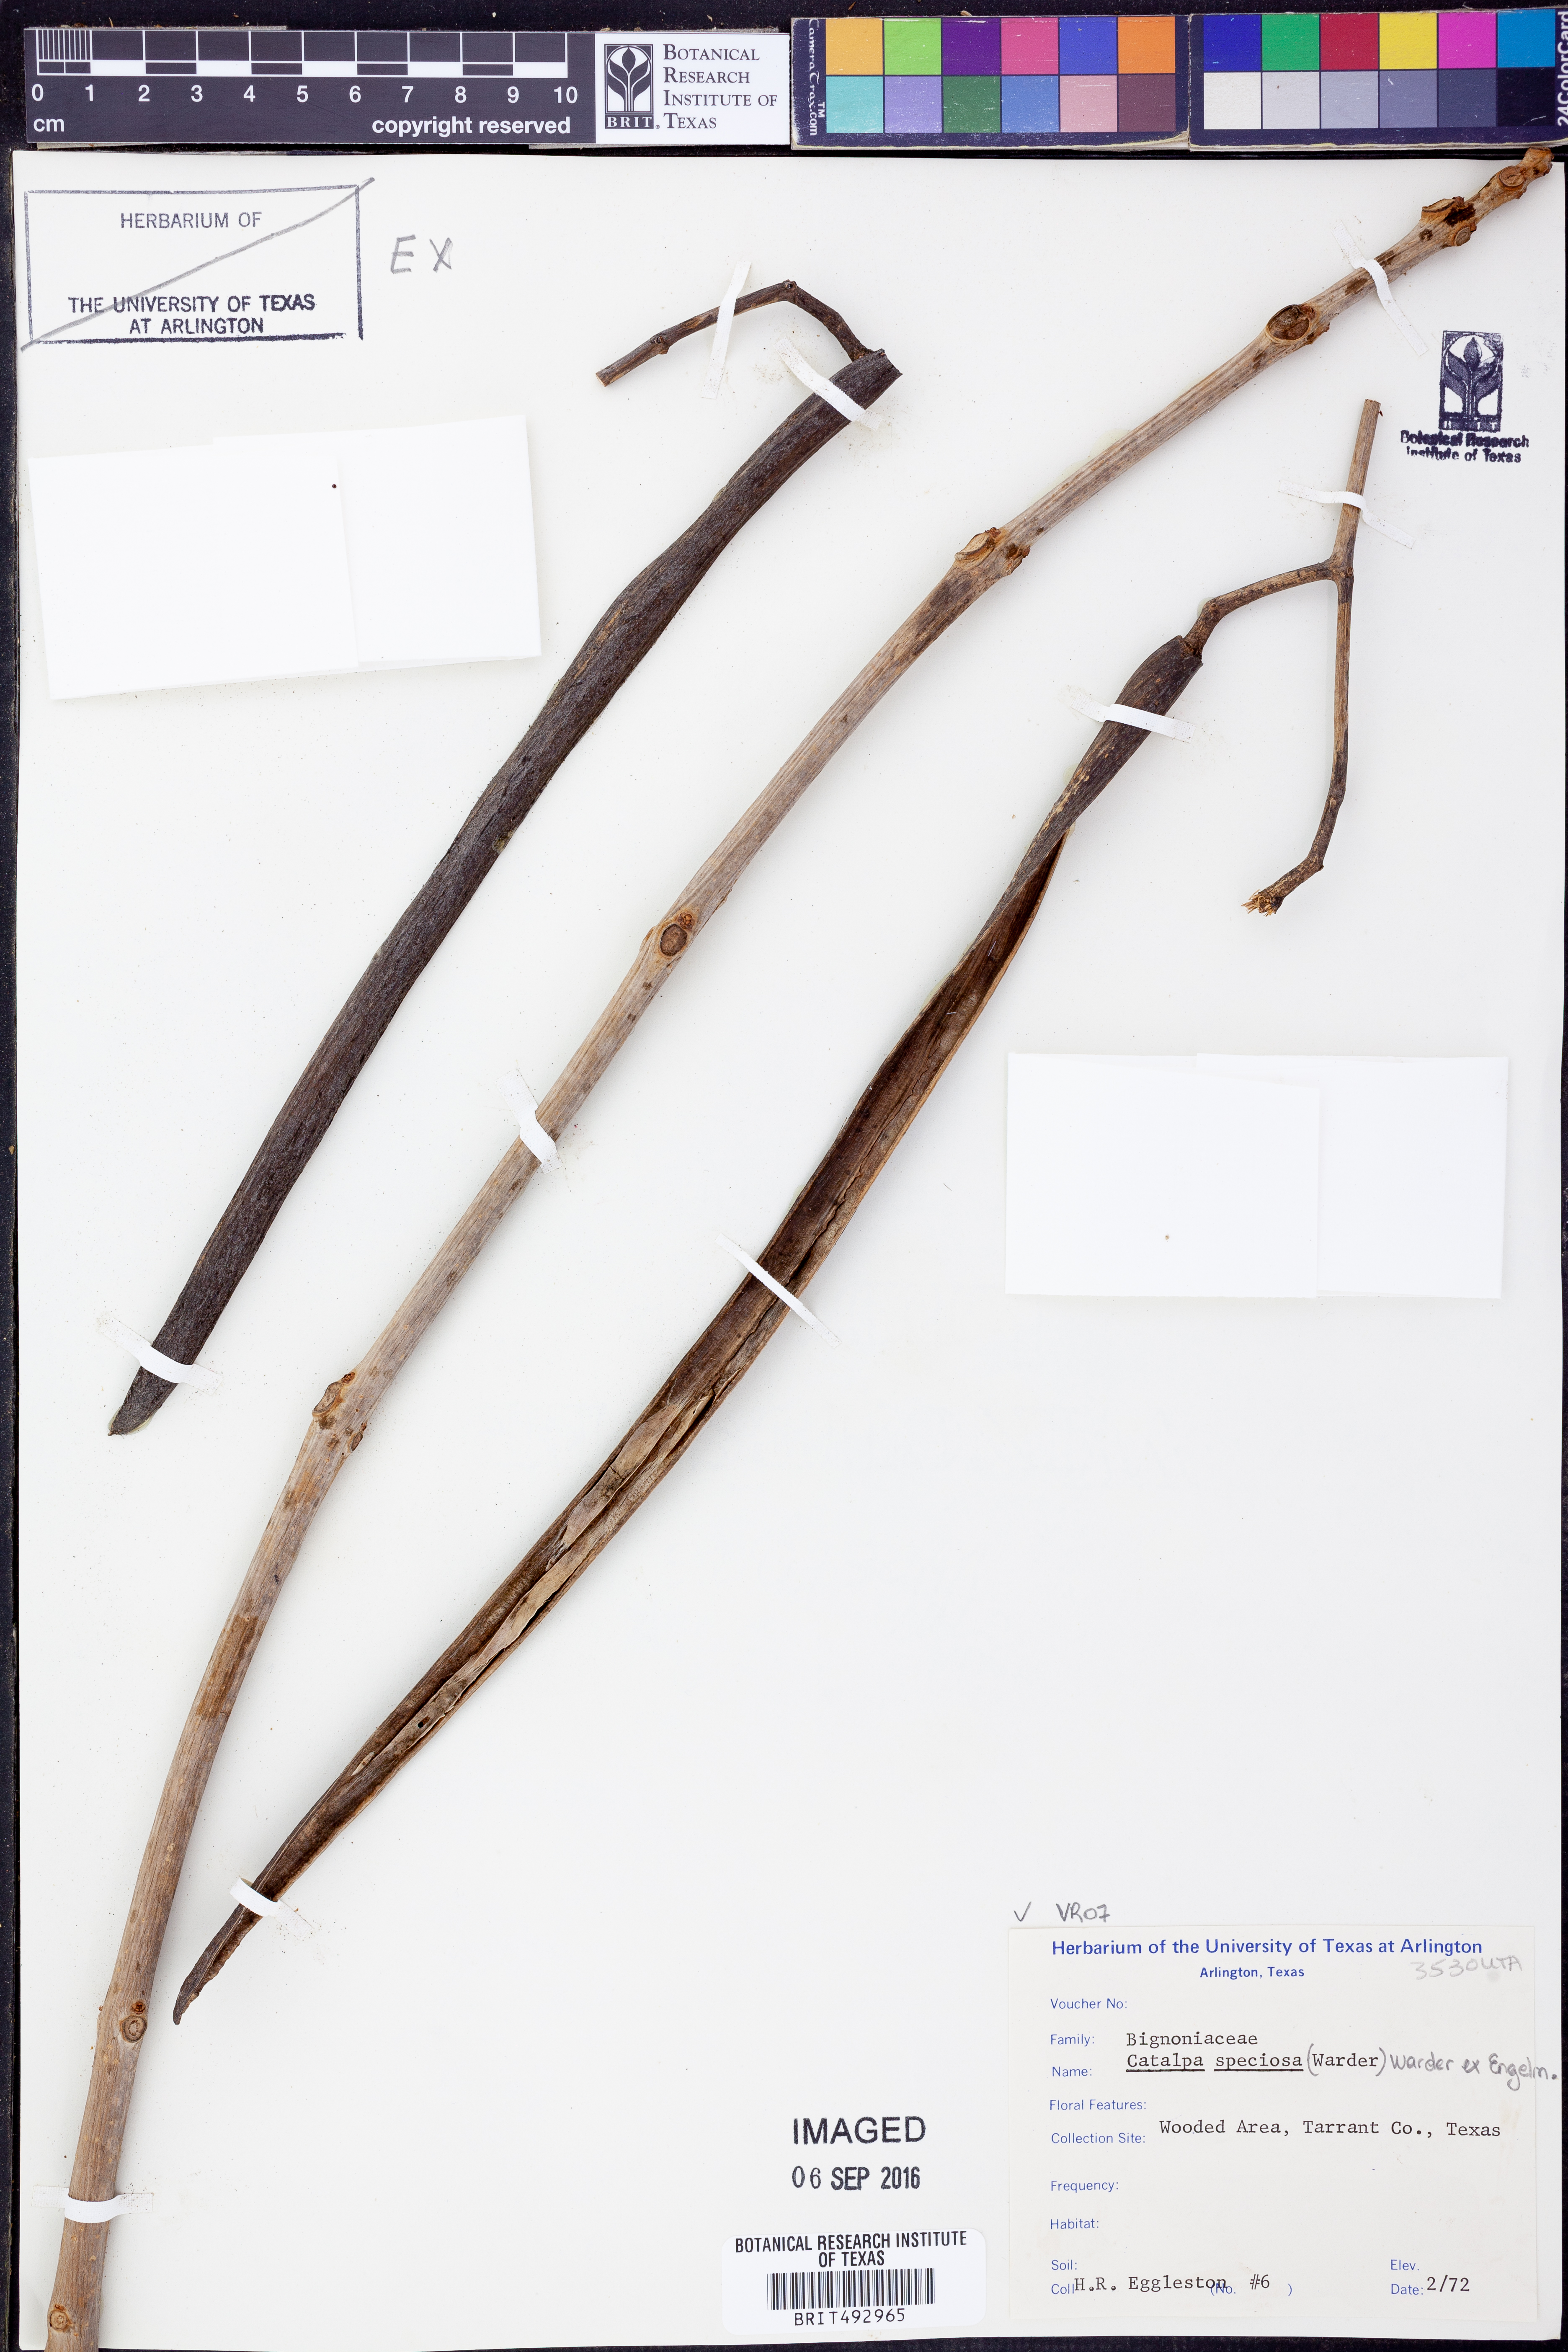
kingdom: Plantae
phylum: Tracheophyta
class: Magnoliopsida
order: Lamiales
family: Bignoniaceae
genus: Catalpa
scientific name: Catalpa speciosa
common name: Northern catalpa
